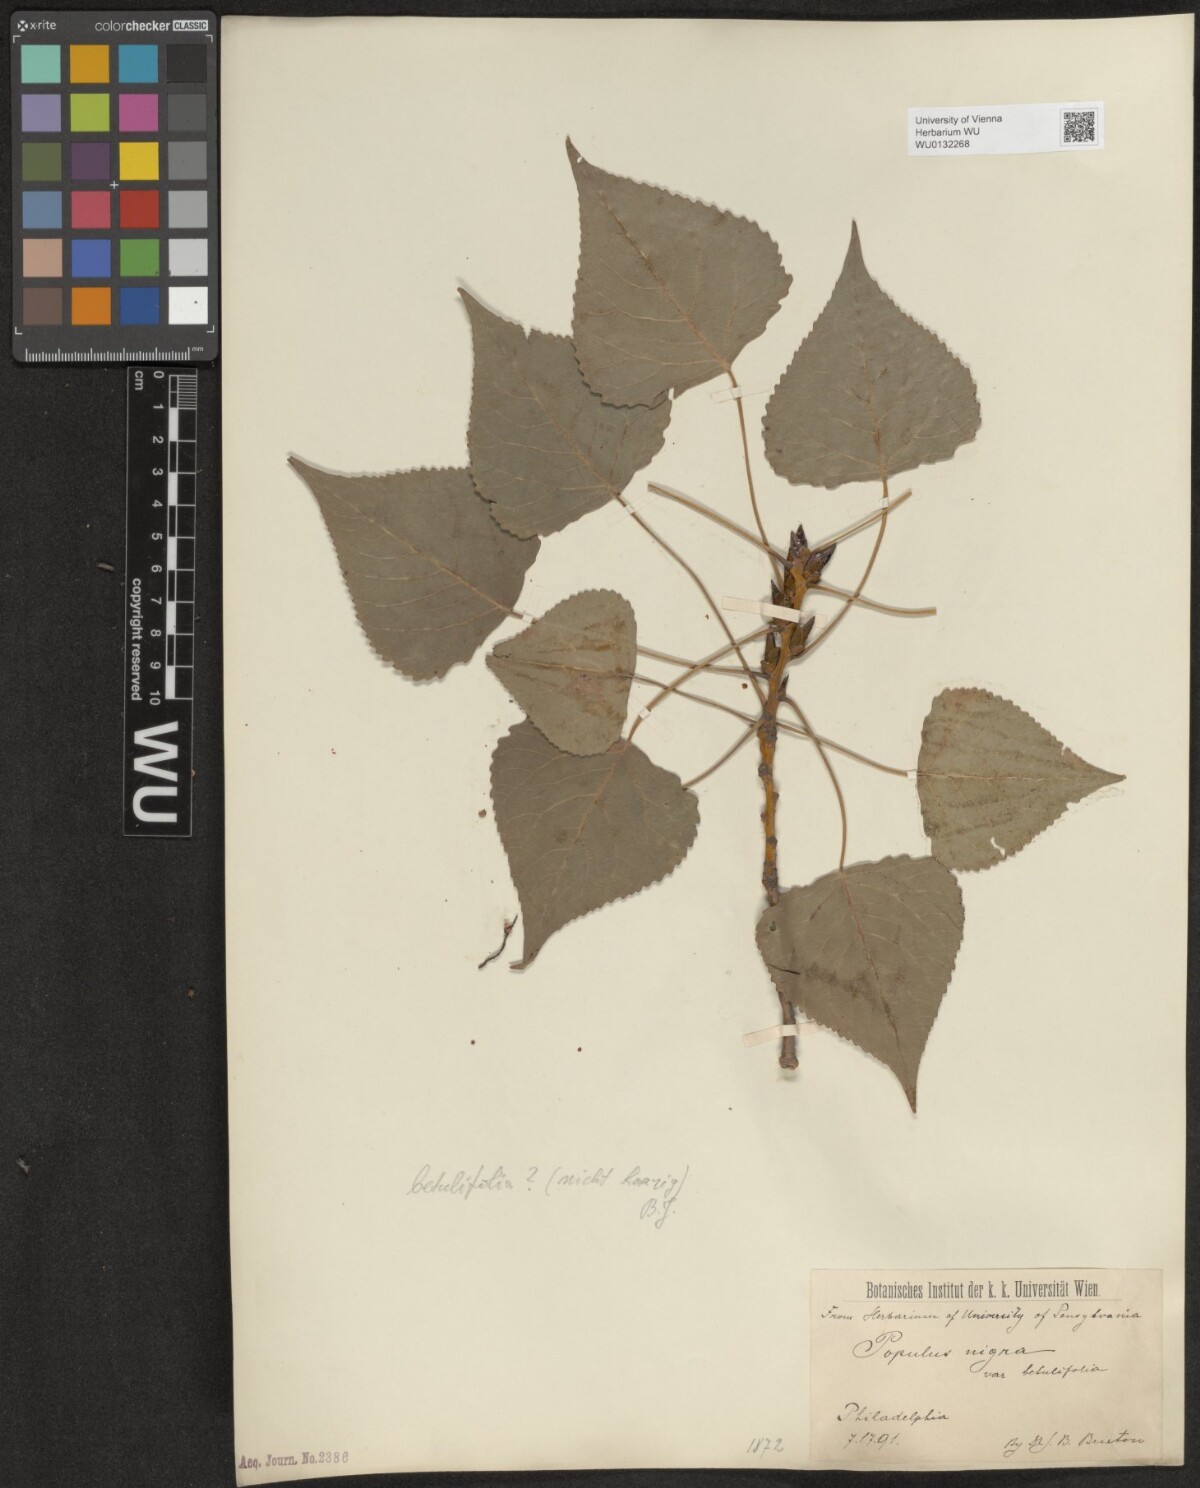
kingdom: Plantae
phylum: Tracheophyta
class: Magnoliopsida
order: Malpighiales
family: Salicaceae
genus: Populus
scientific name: Populus nigra
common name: Black poplar
